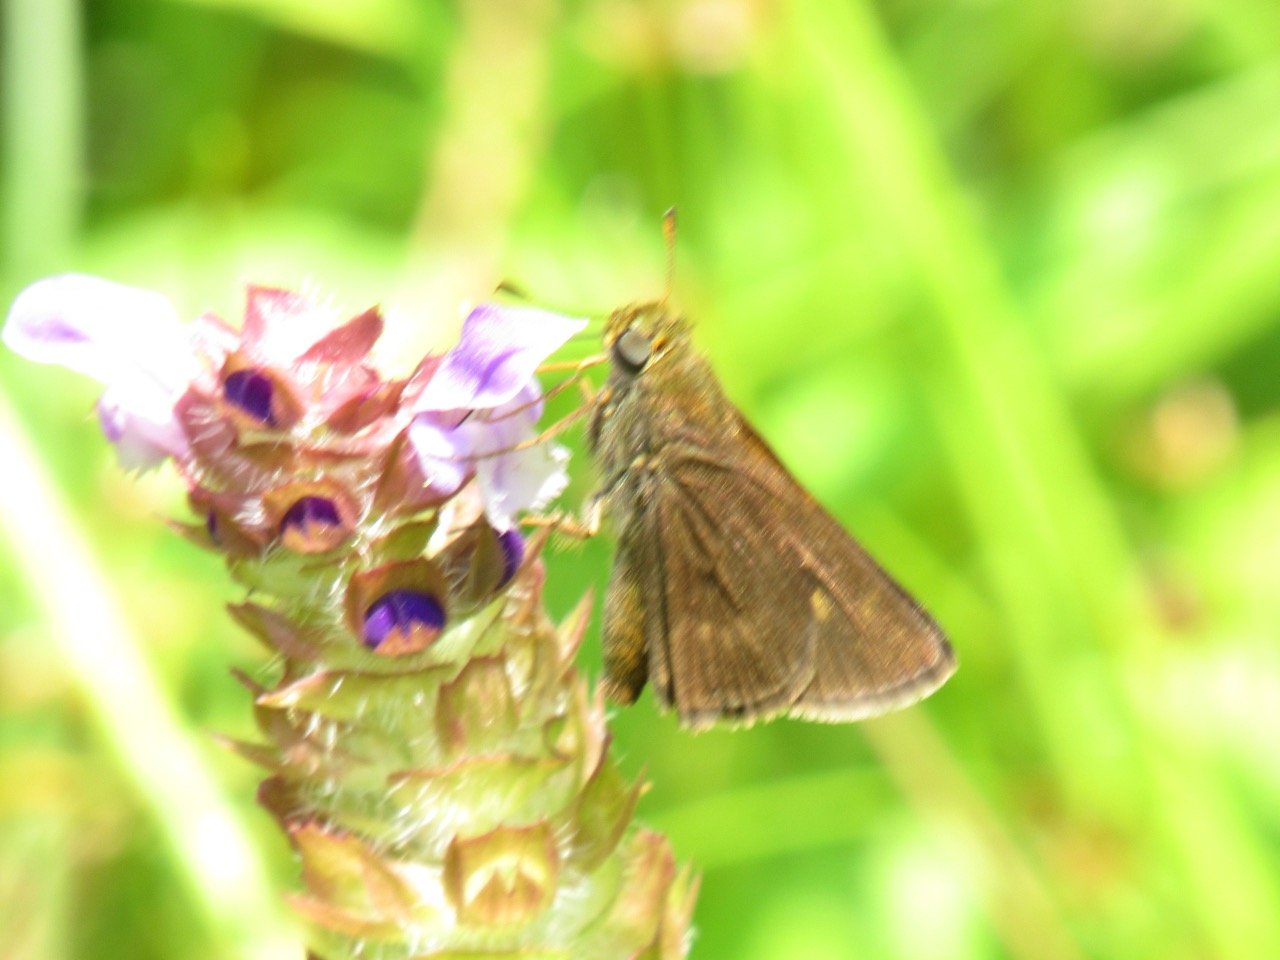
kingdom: Animalia
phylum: Arthropoda
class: Insecta
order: Lepidoptera
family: Hesperiidae
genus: Polites
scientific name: Polites egeremet
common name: Northern Broken-Dash
